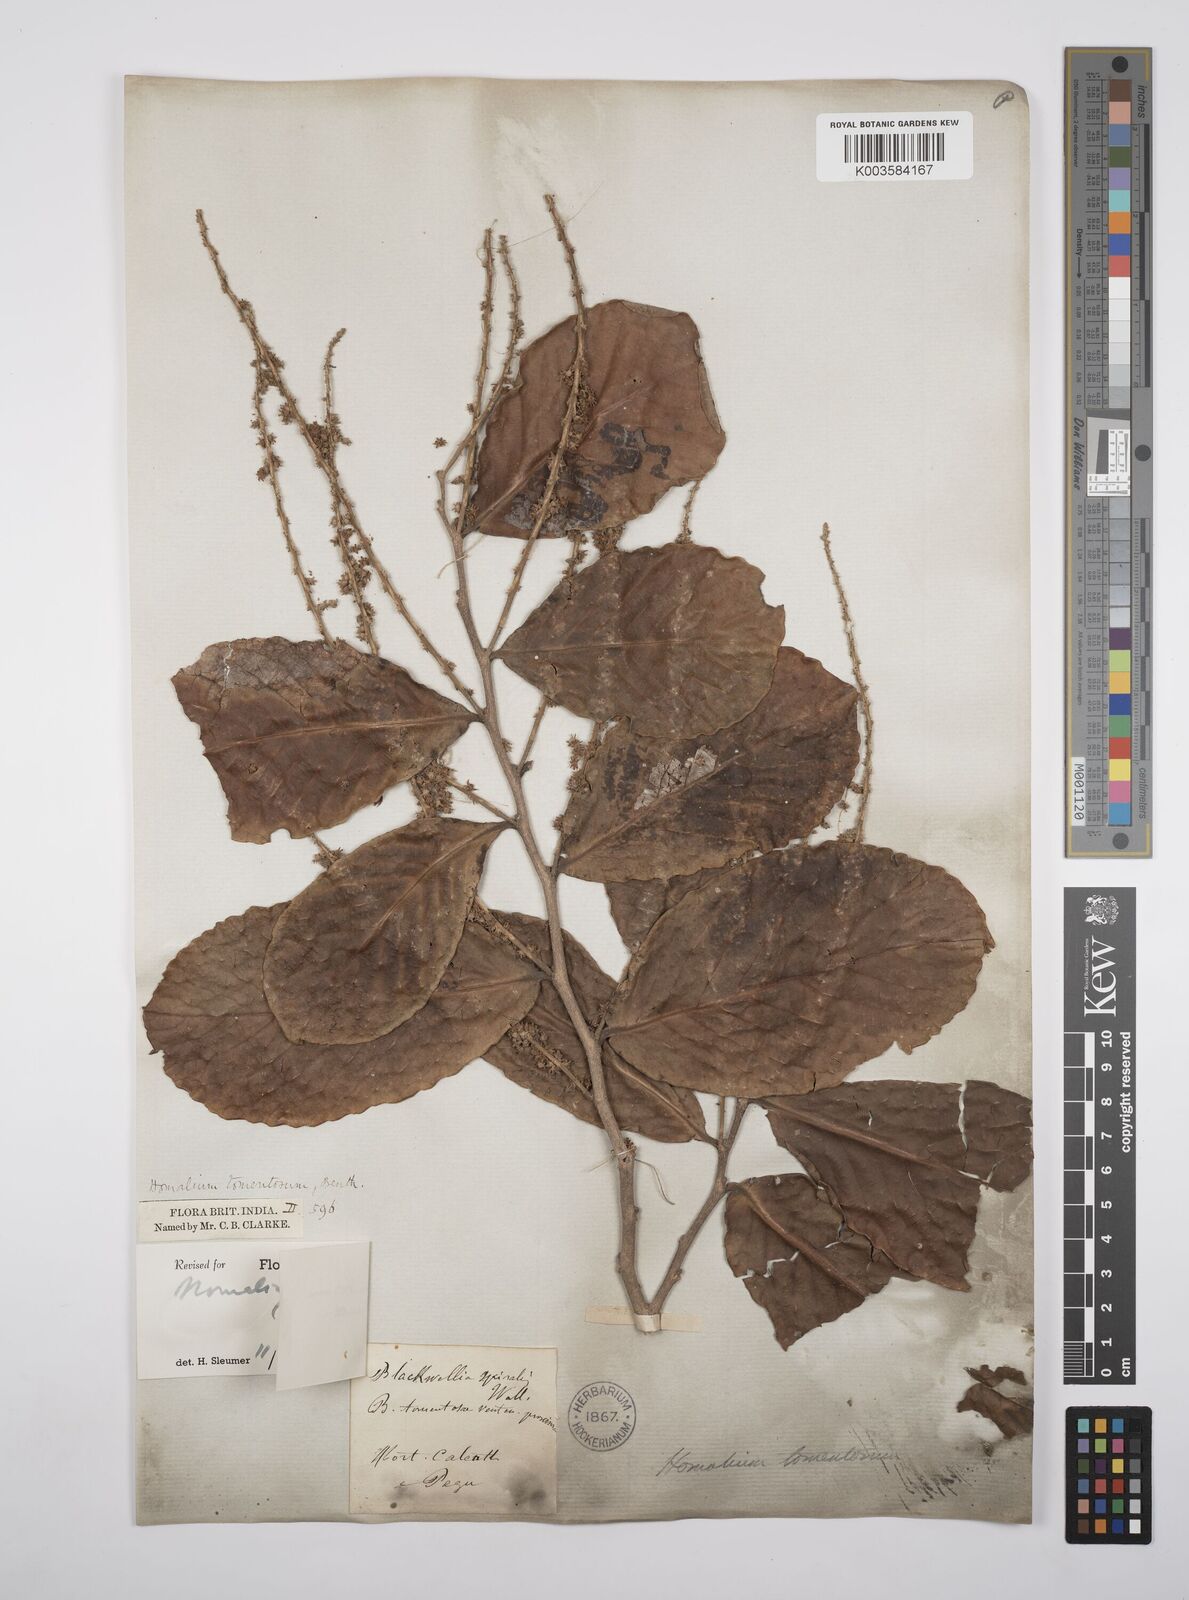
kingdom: Plantae
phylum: Tracheophyta
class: Magnoliopsida
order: Malpighiales
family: Salicaceae
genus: Homalium
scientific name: Homalium tomentosum
